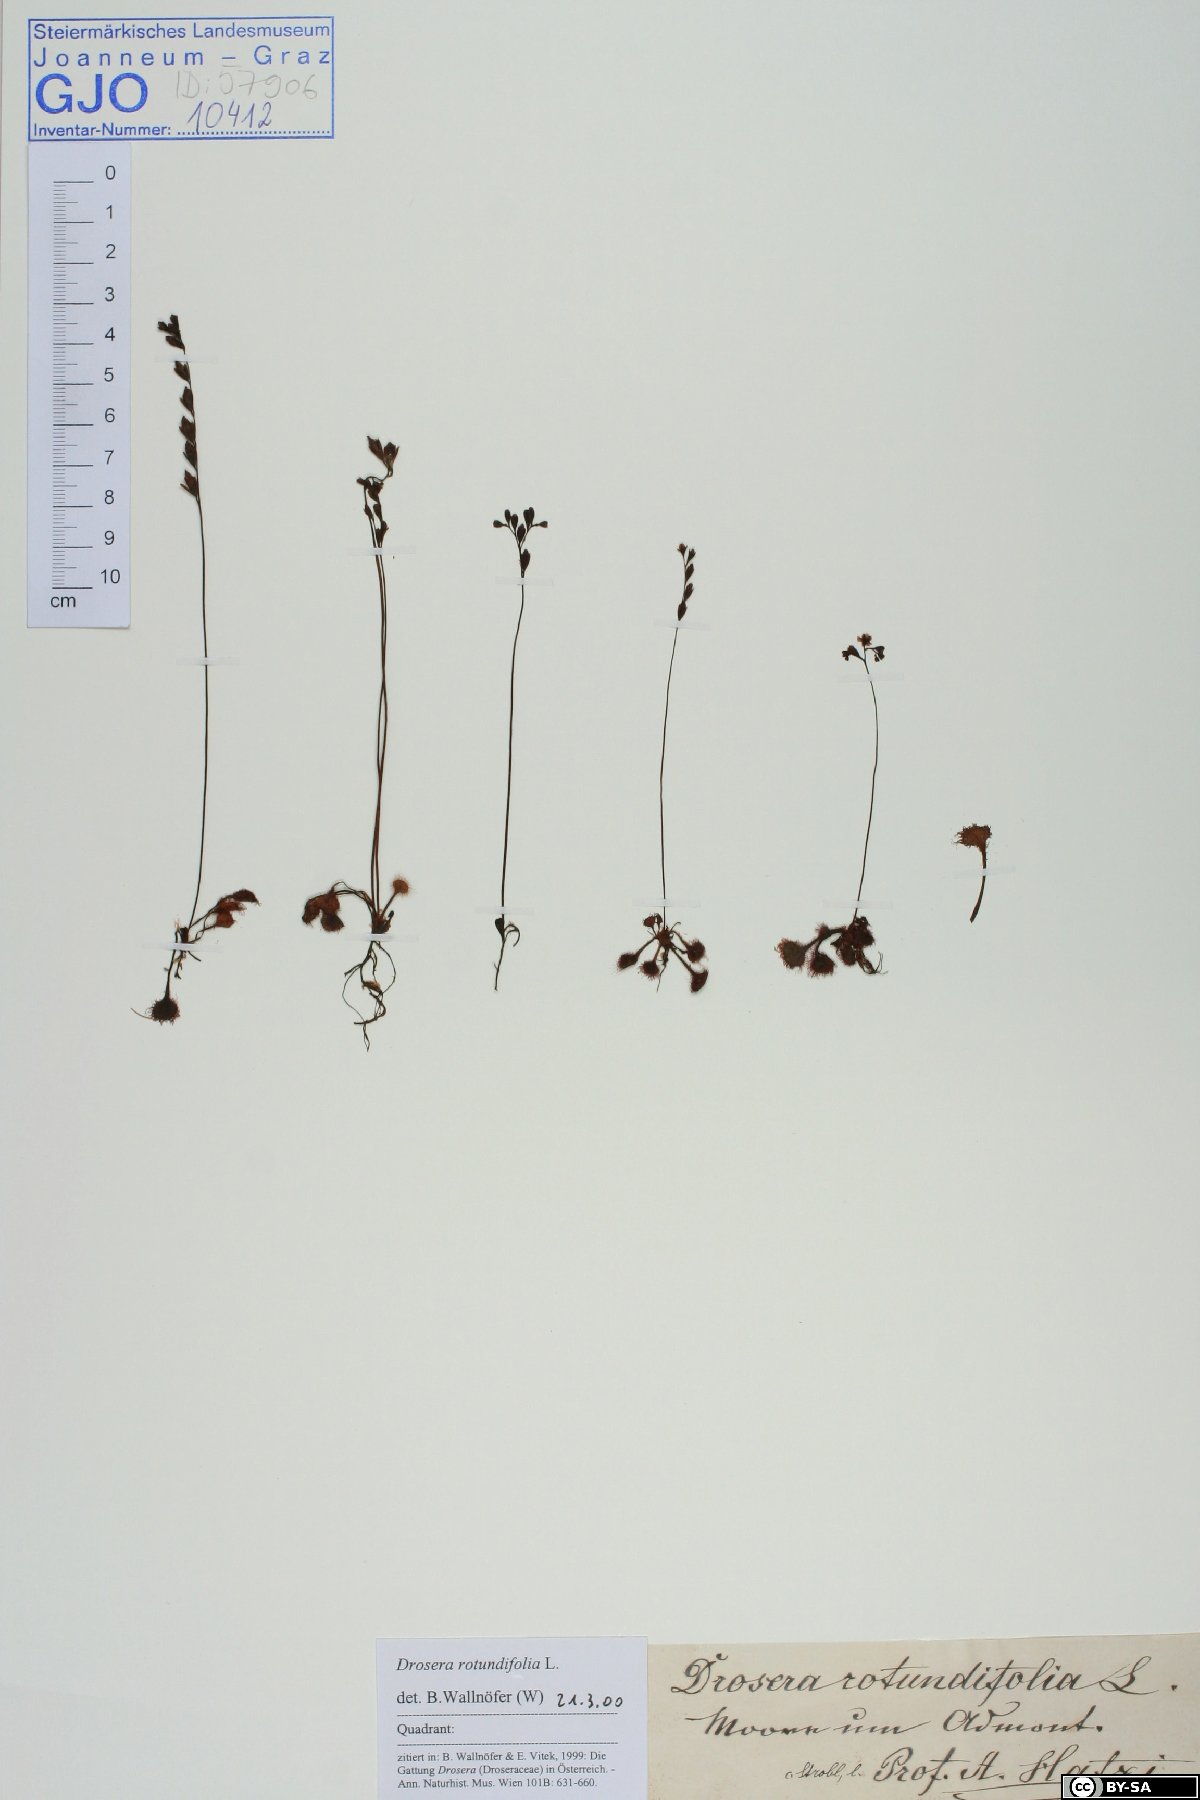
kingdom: Plantae
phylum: Tracheophyta
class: Magnoliopsida
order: Caryophyllales
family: Droseraceae
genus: Drosera
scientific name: Drosera rotundifolia
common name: Round-leaved sundew
